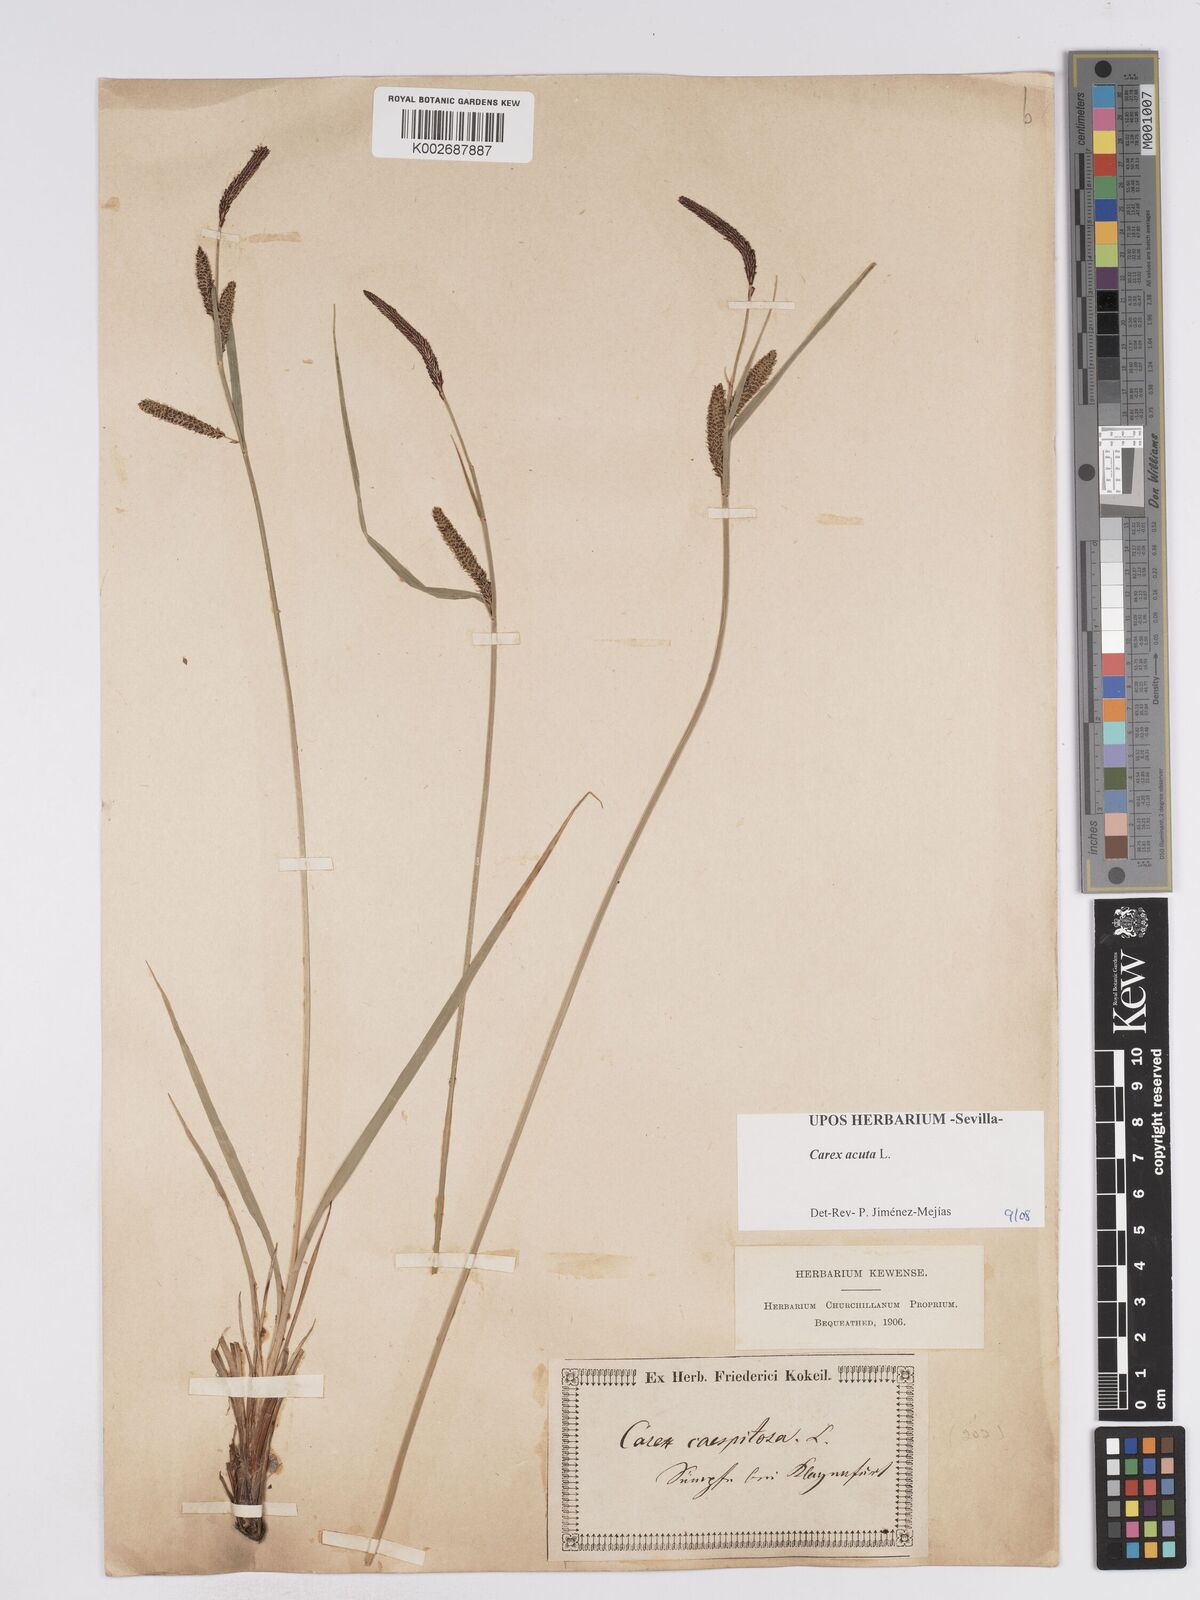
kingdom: Plantae
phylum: Tracheophyta
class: Liliopsida
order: Poales
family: Cyperaceae
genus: Carex
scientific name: Carex acuta
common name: Slender tufted-sedge
